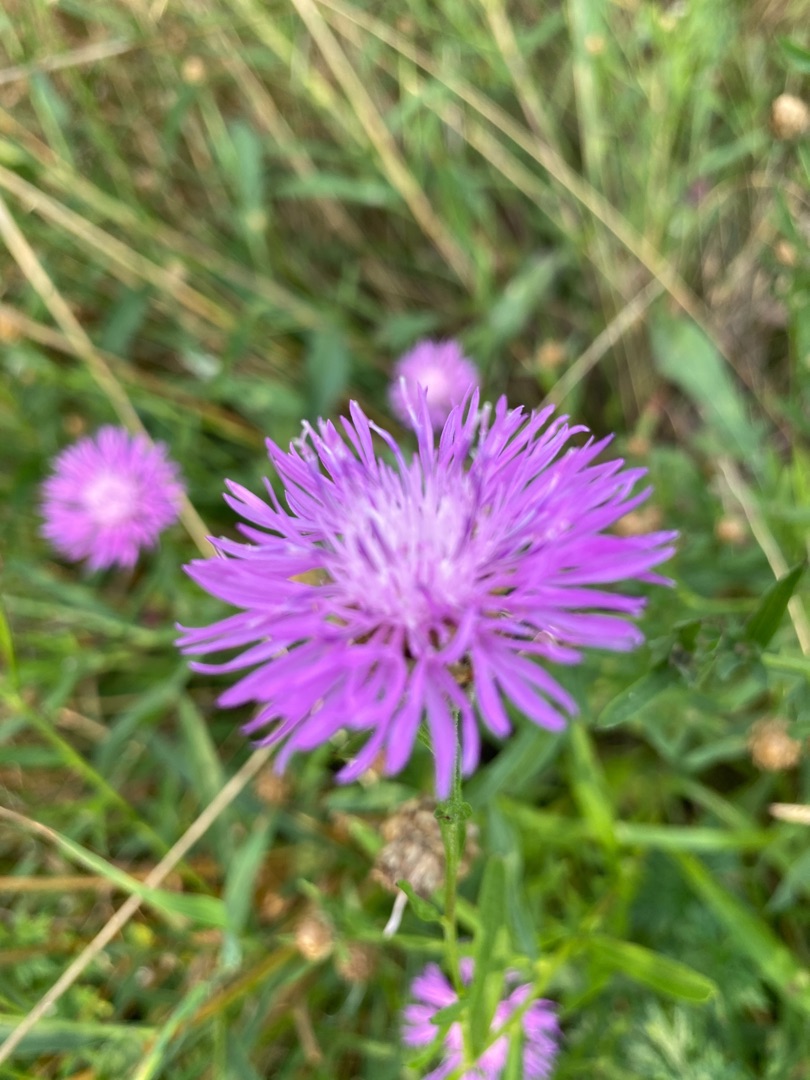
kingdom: Plantae
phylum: Tracheophyta
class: Magnoliopsida
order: Asterales
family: Asteraceae
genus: Centaurea
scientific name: Centaurea jacea
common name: Almindelig knopurt
